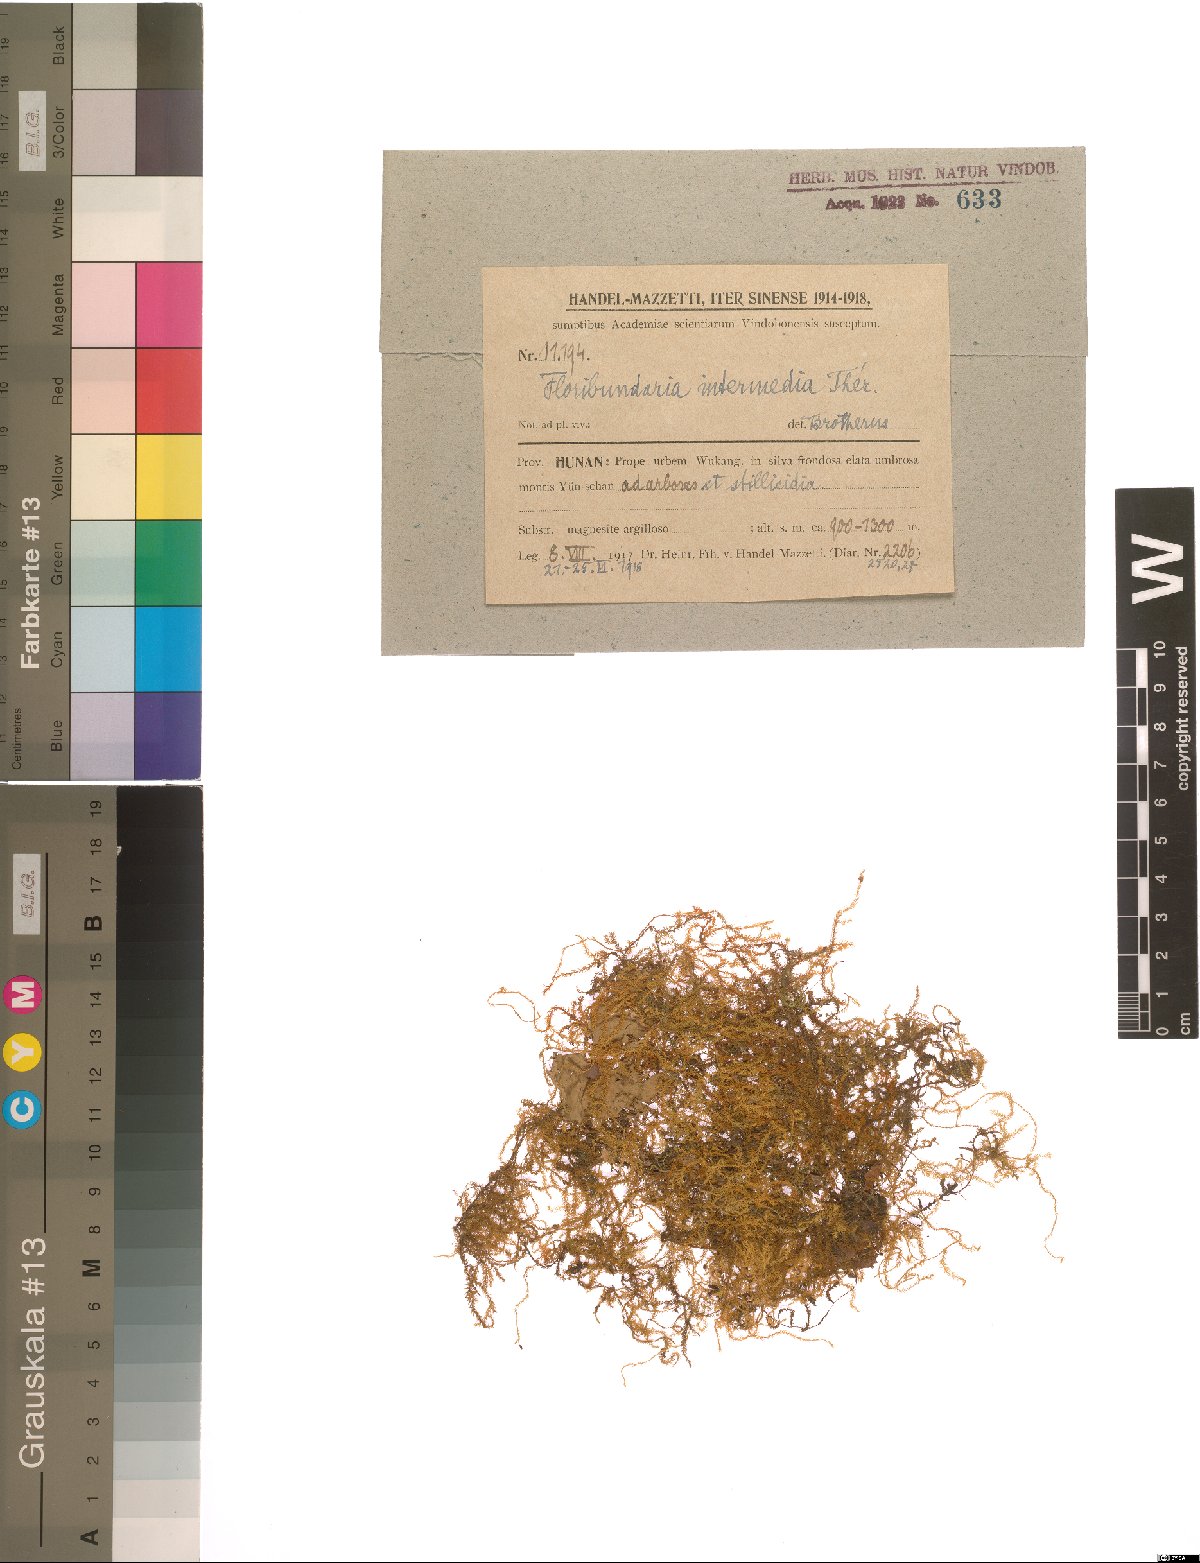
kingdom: Plantae
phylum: Bryophyta
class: Bryopsida
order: Hypnales
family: Meteoriaceae
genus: Floribundaria
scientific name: Floribundaria intermedia
